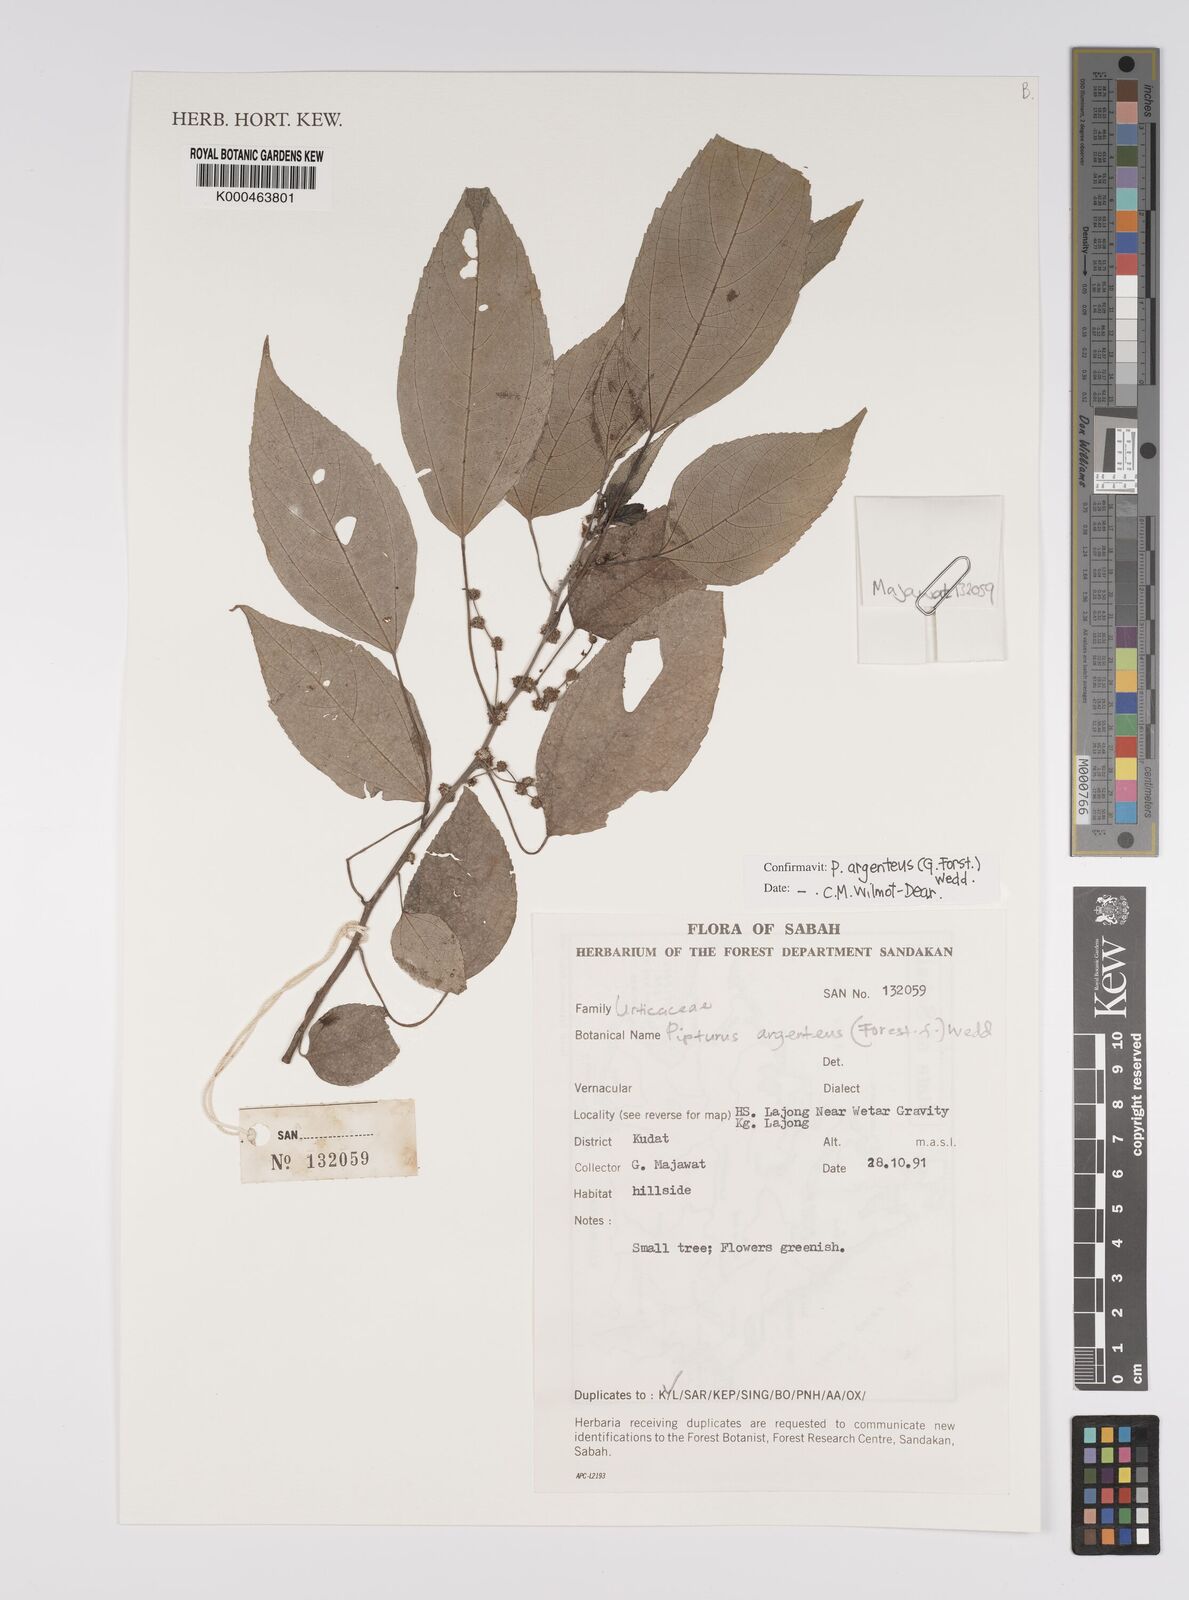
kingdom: Plantae
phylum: Tracheophyta
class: Magnoliopsida
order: Rosales
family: Urticaceae
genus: Pipturus
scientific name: Pipturus argenteus
